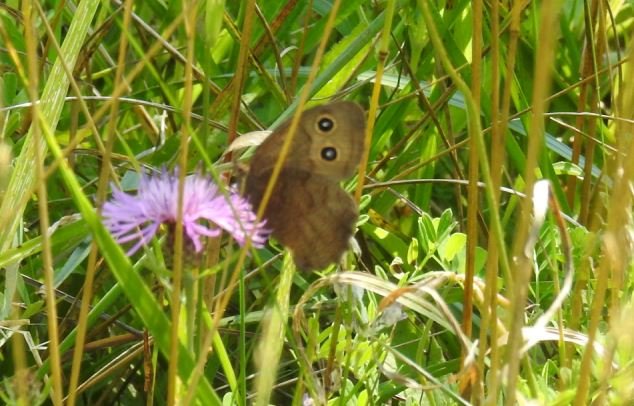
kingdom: Animalia
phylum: Arthropoda
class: Insecta
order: Lepidoptera
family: Nymphalidae
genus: Cercyonis
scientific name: Cercyonis pegala
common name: Common Wood-Nymph
